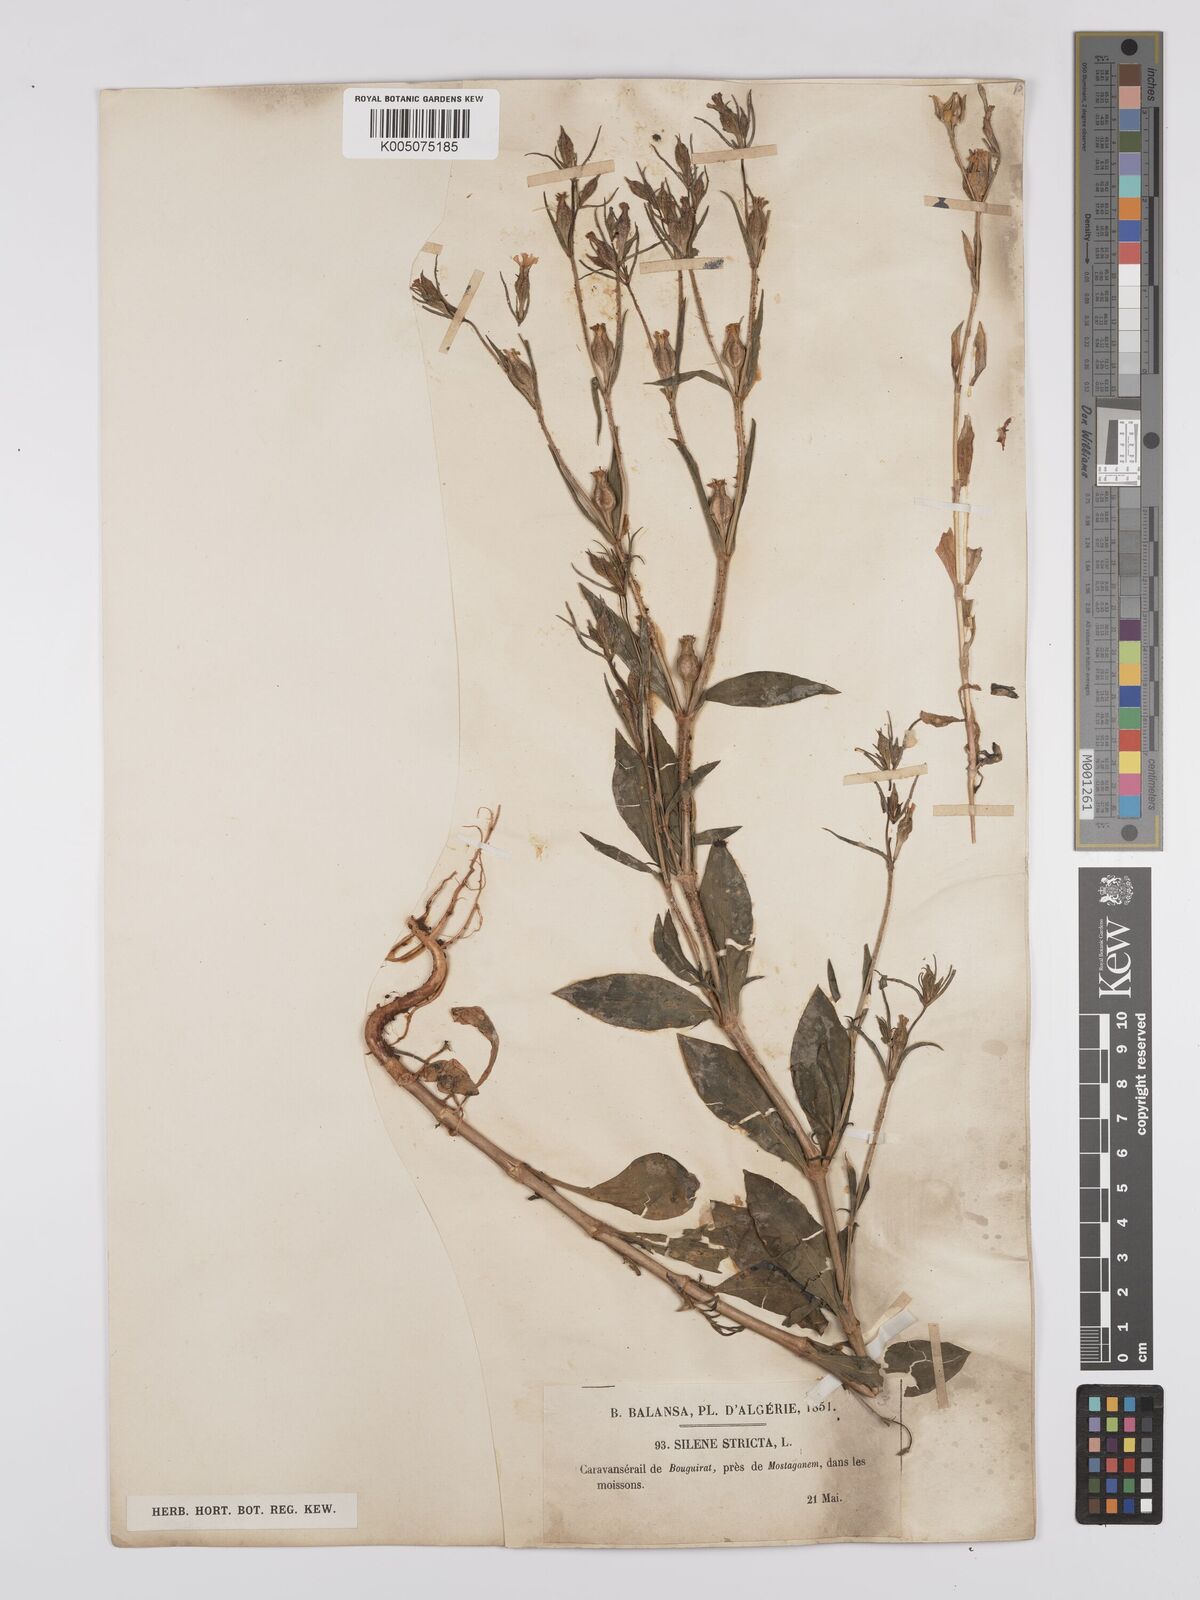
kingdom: Plantae
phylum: Tracheophyta
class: Magnoliopsida
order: Caryophyllales
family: Caryophyllaceae
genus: Silene
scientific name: Silene stricta
